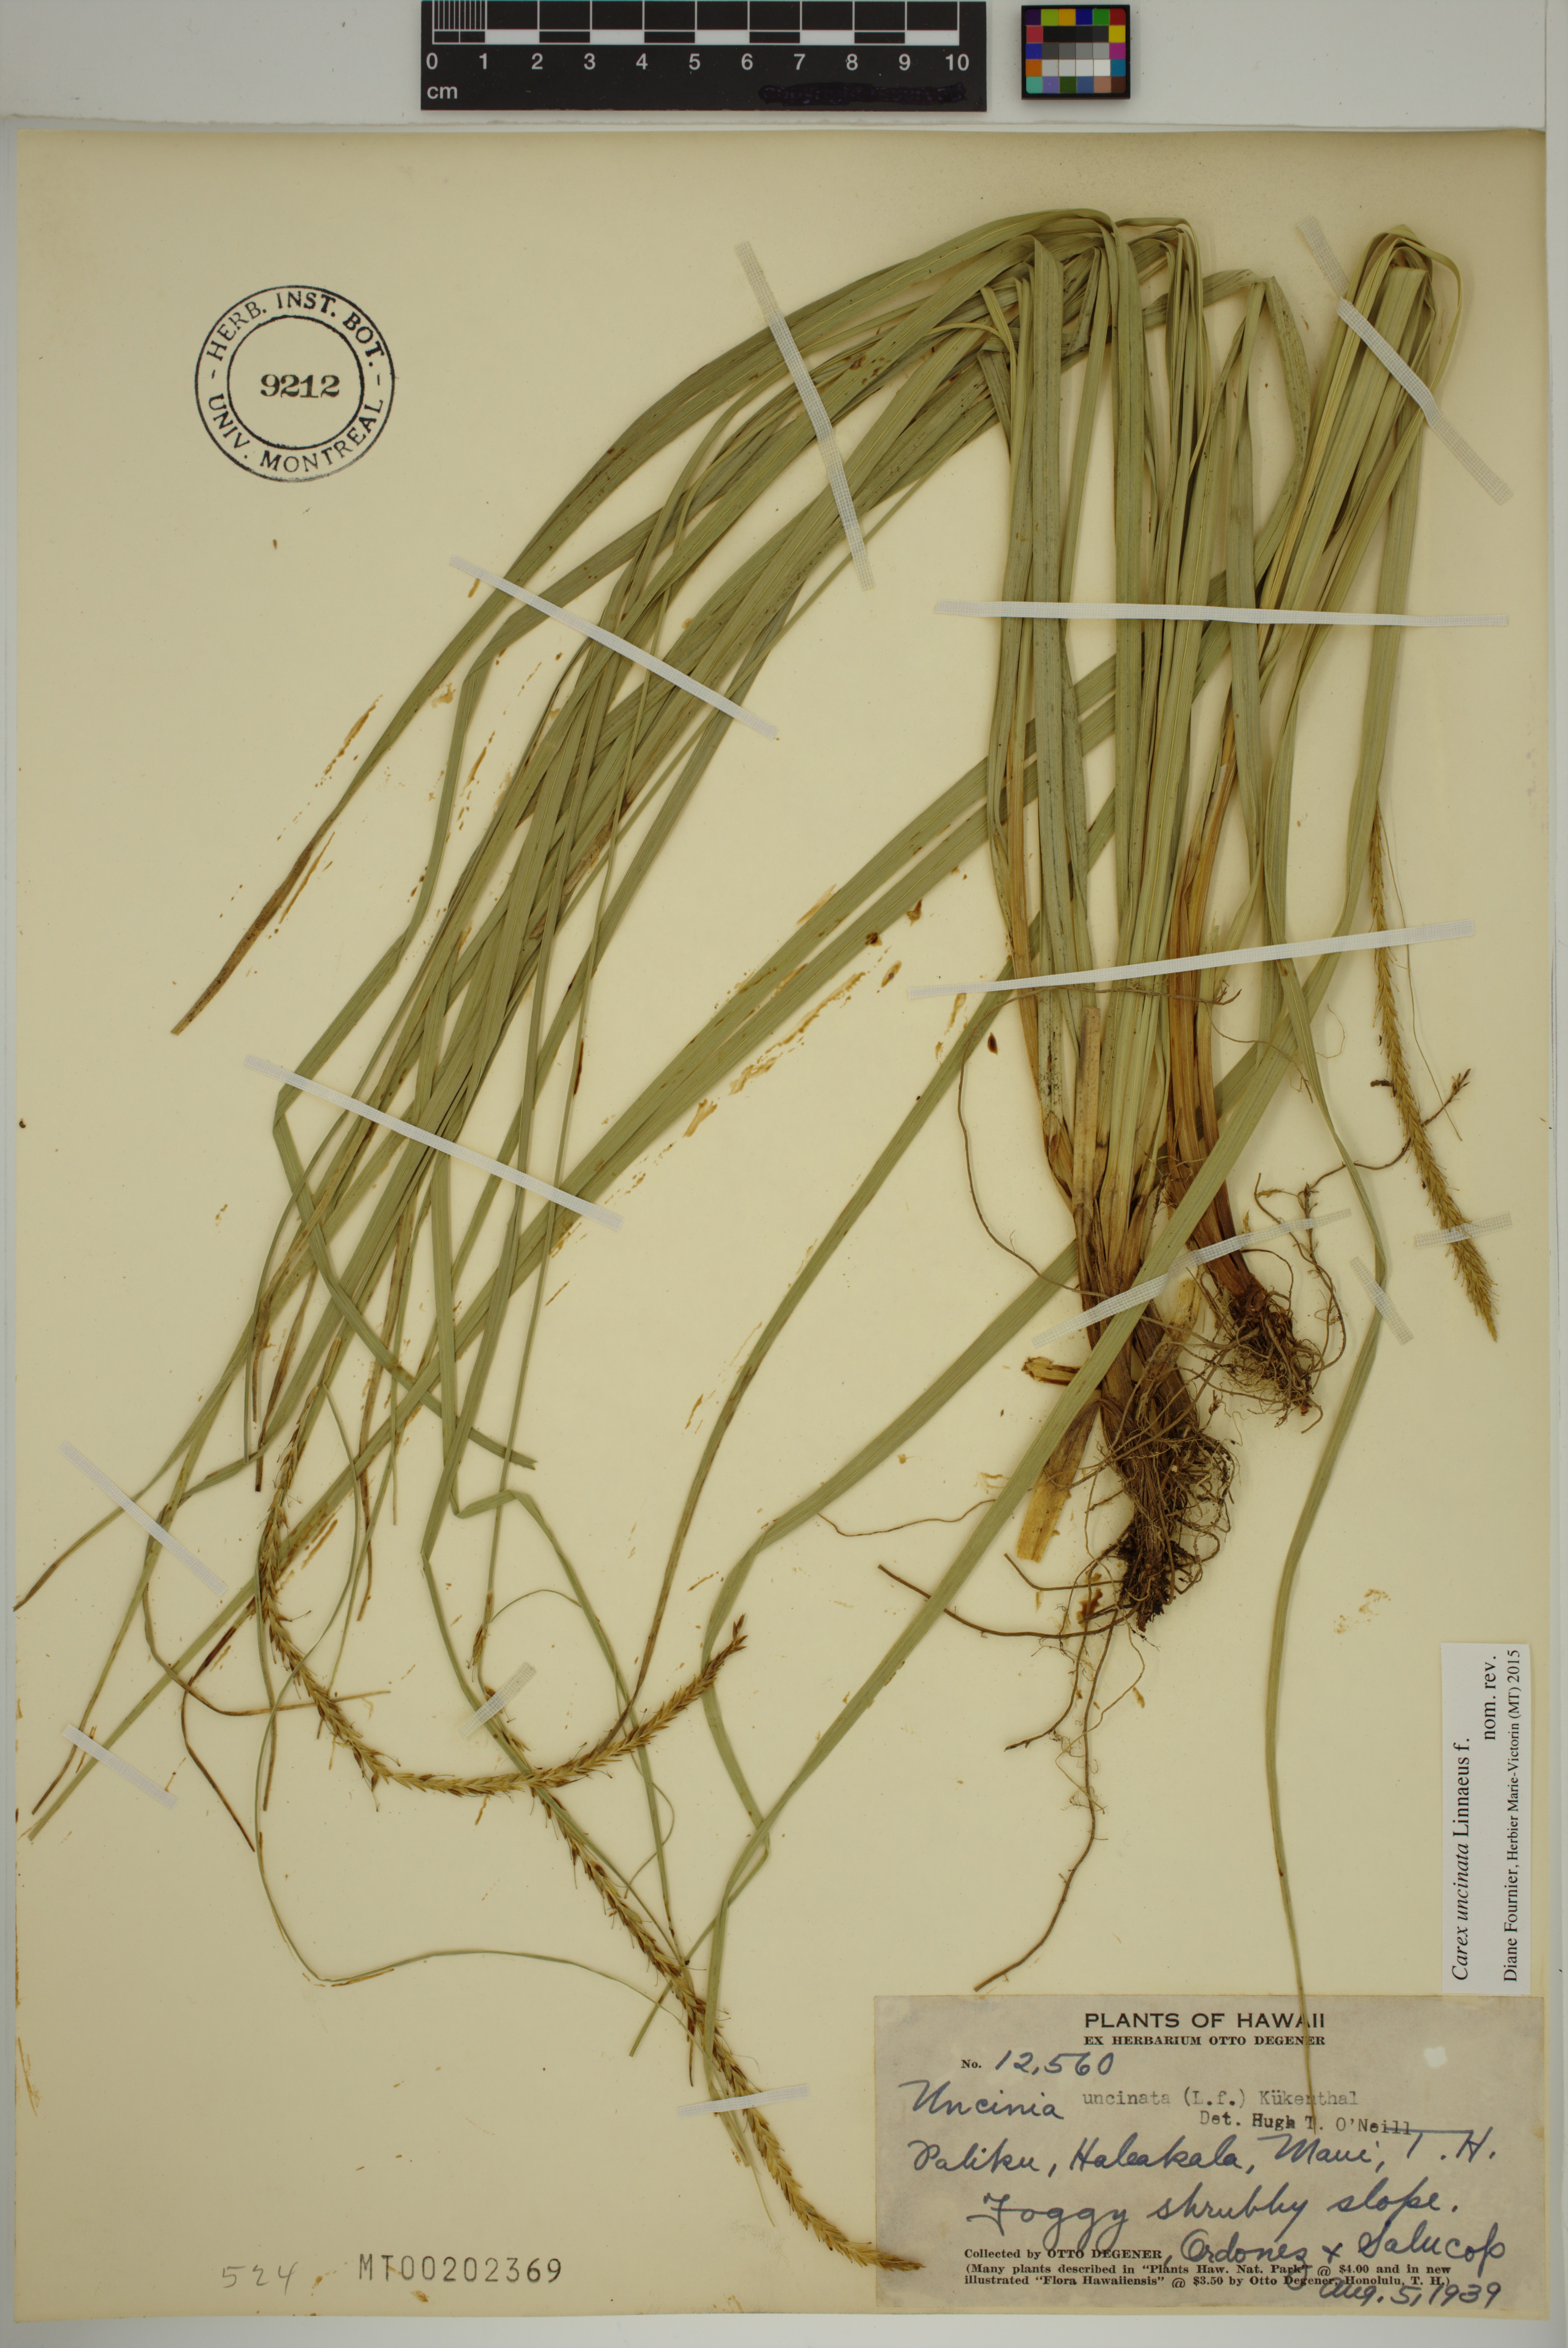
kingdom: Plantae
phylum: Tracheophyta
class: Liliopsida
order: Poales
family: Cyperaceae
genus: Carex
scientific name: Carex uncinata
